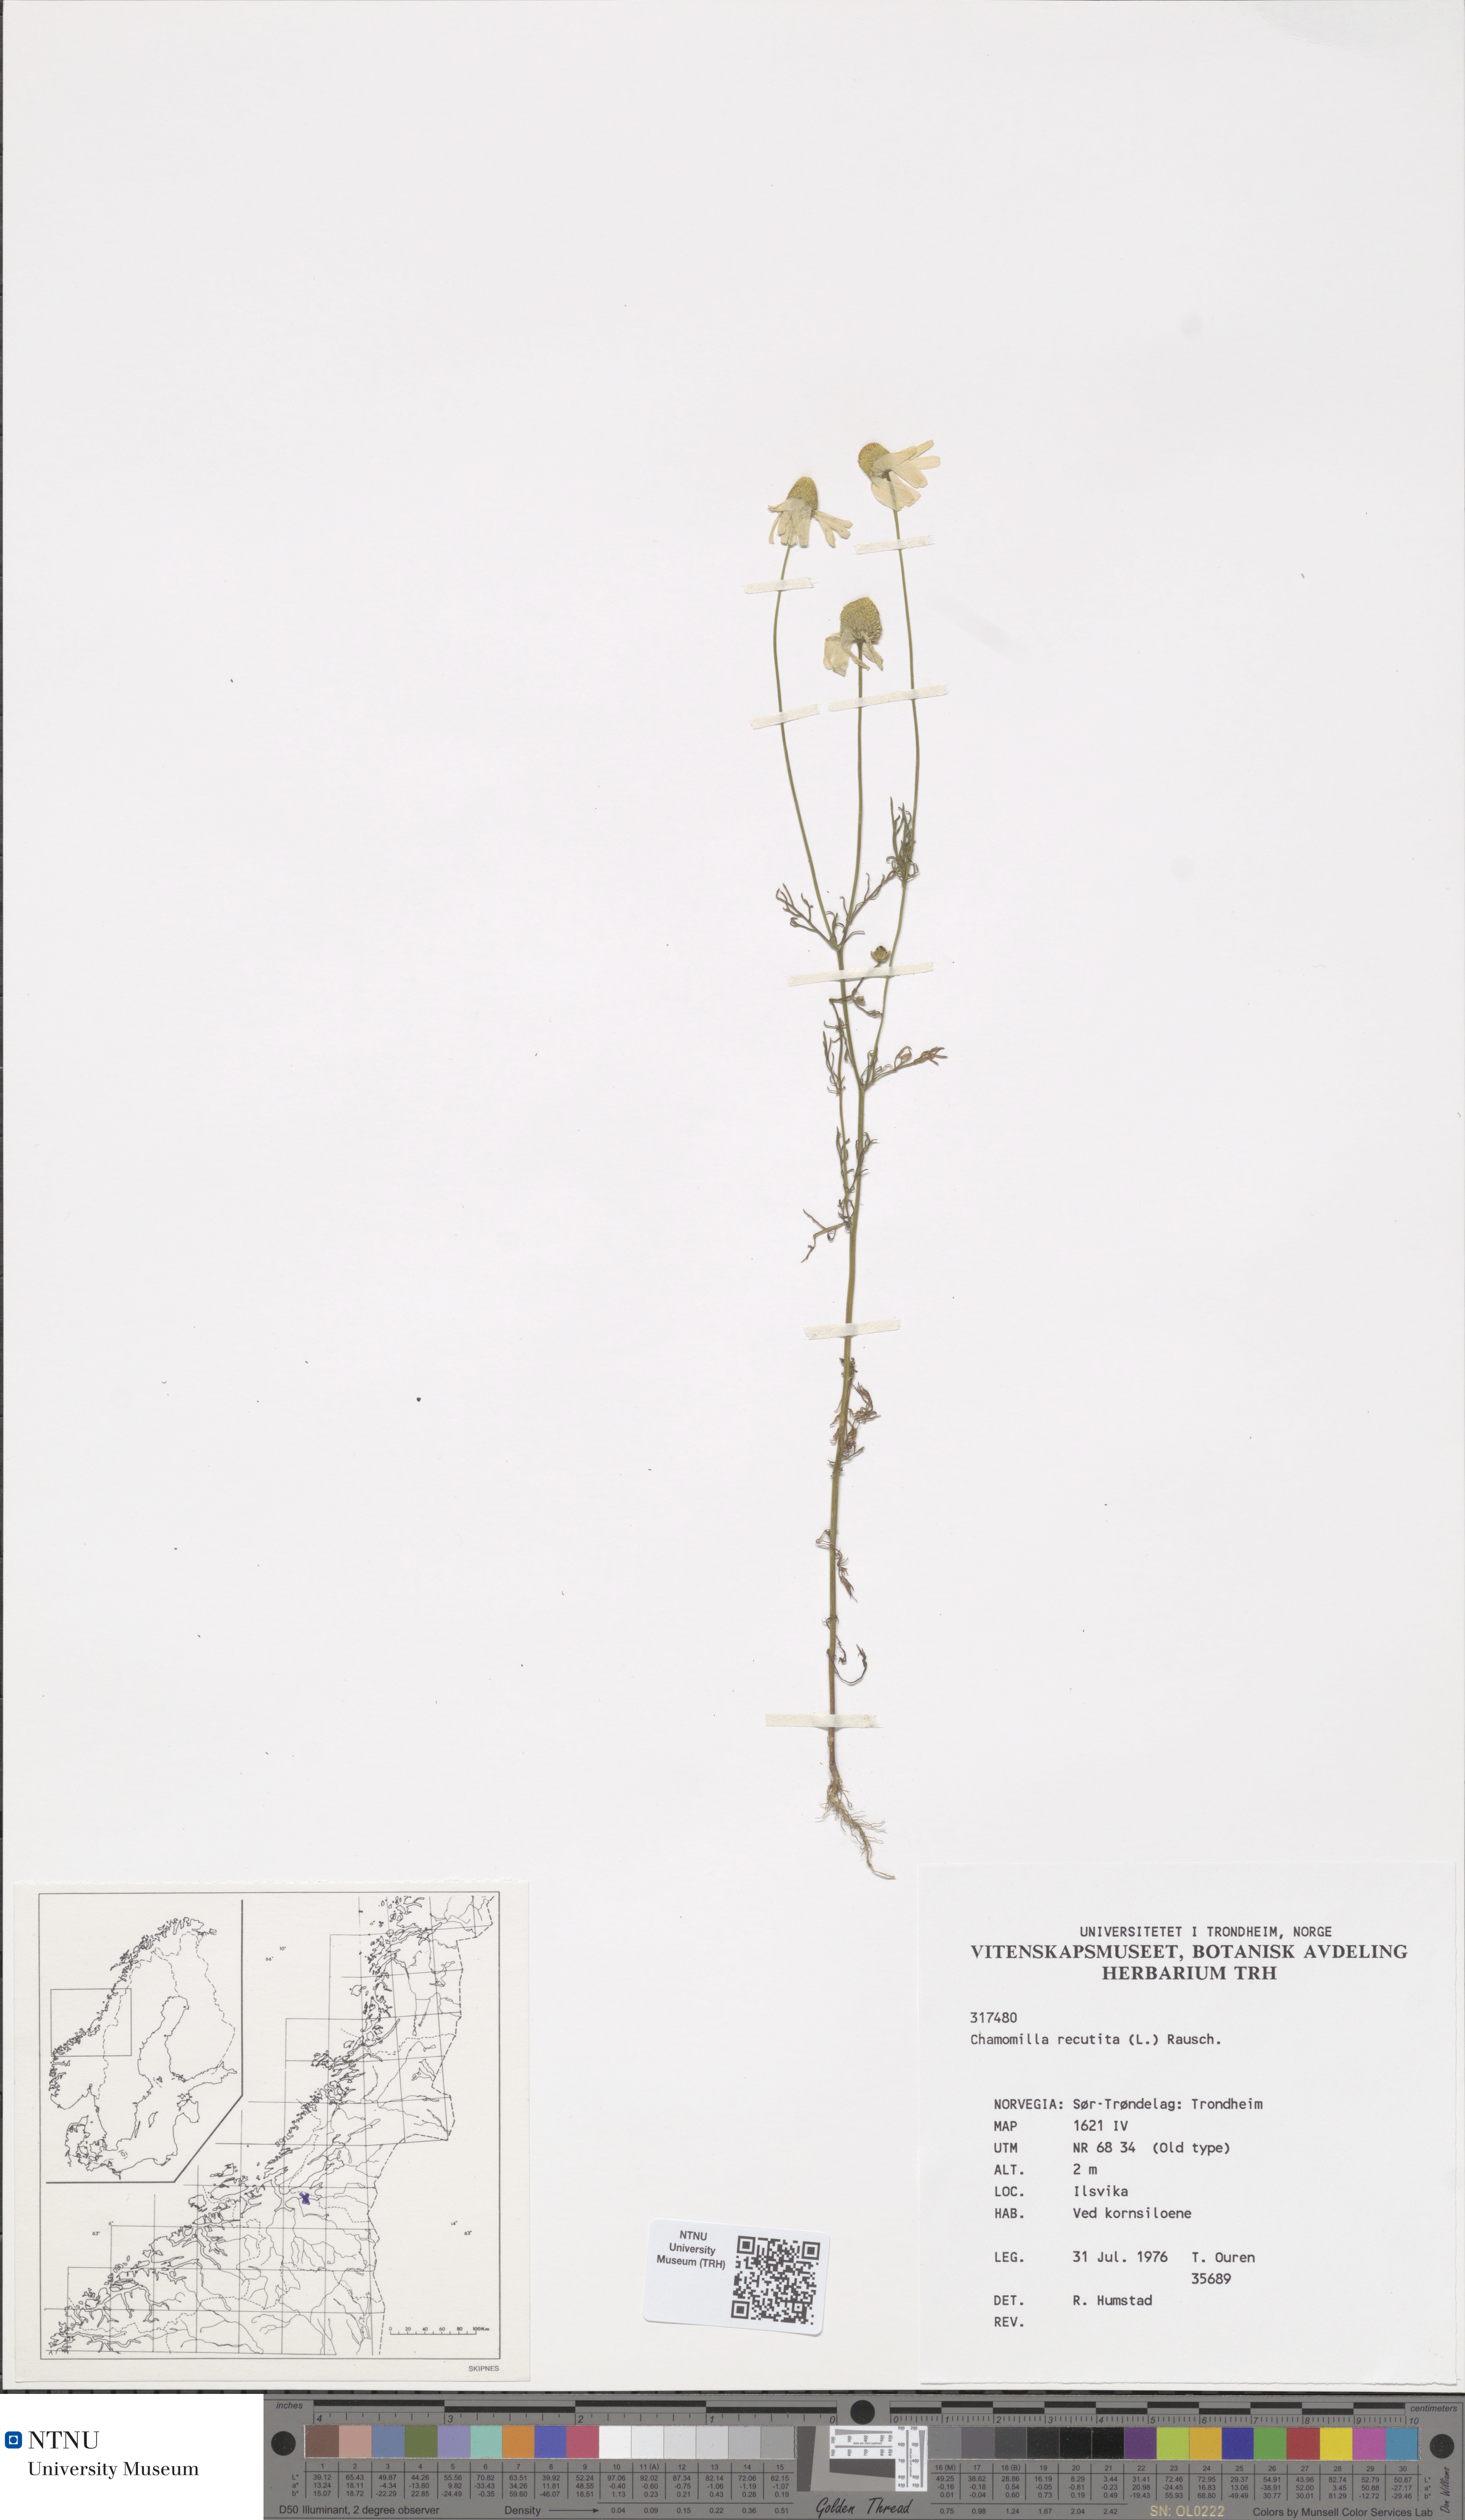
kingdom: Plantae
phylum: Tracheophyta
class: Magnoliopsida
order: Asterales
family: Asteraceae
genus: Matricaria
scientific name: Matricaria chamomilla
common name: Scented mayweed
